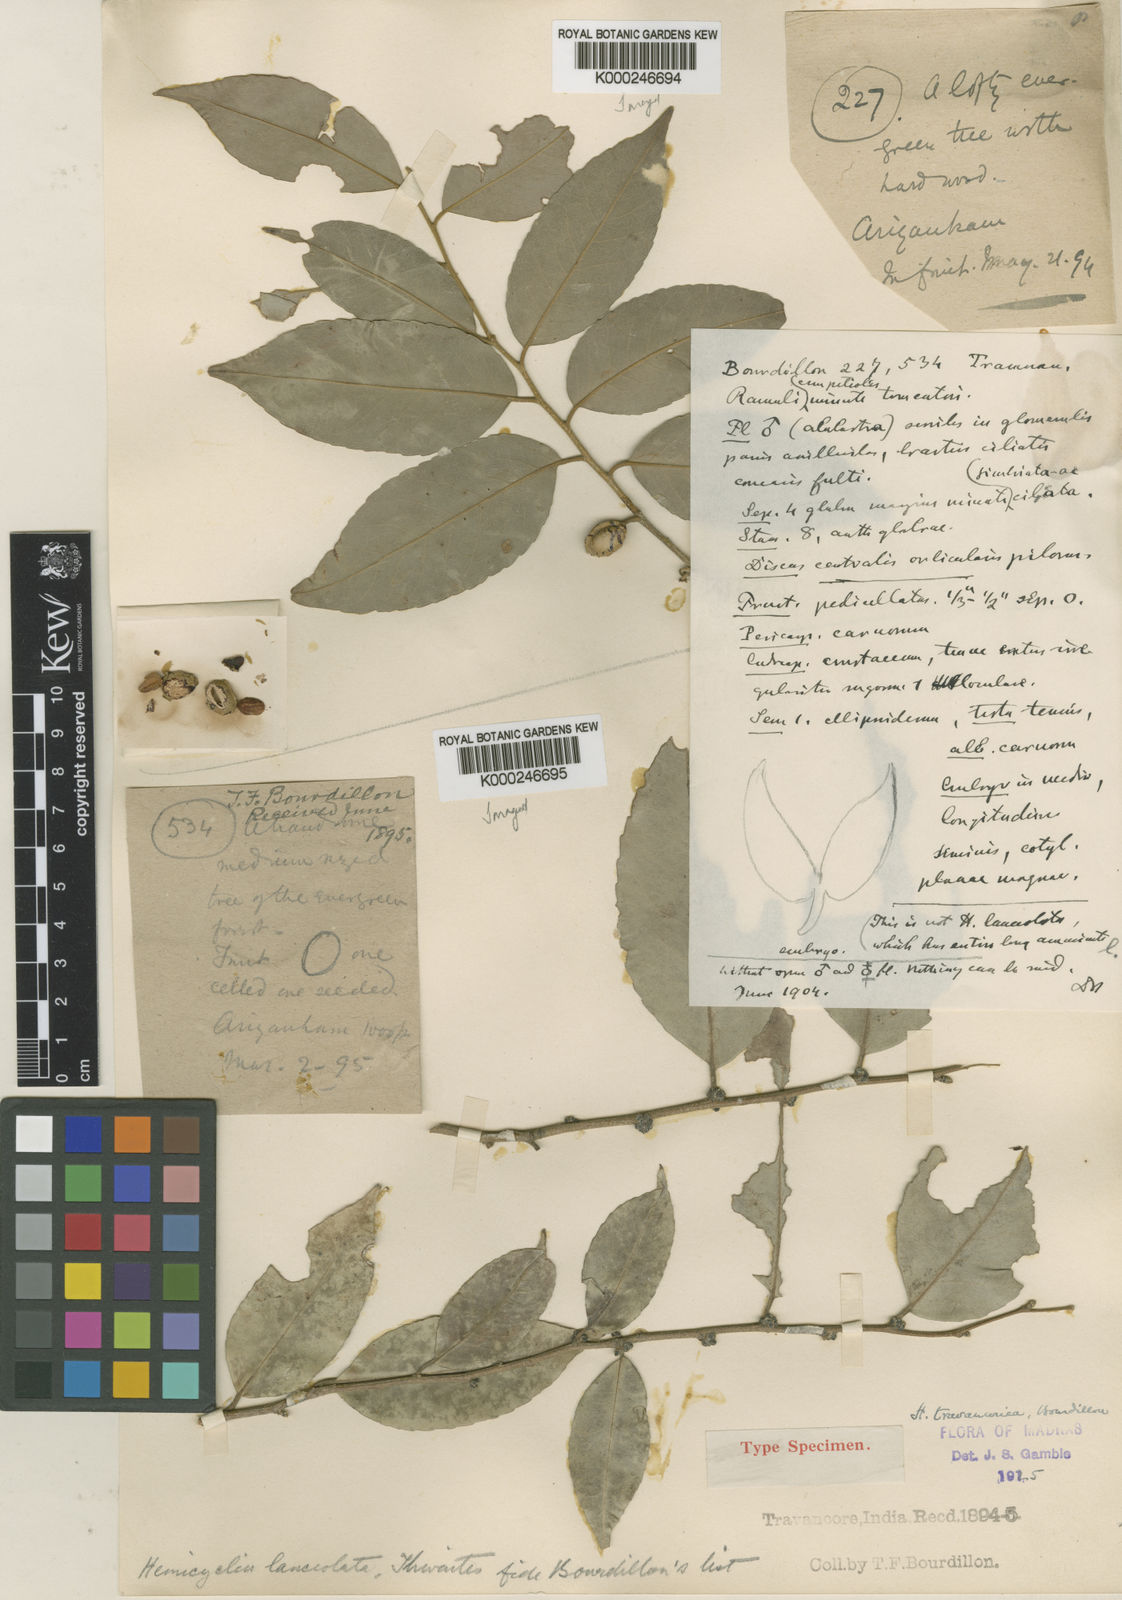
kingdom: Plantae
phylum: Tracheophyta
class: Magnoliopsida
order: Malpighiales
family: Putranjivaceae
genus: Drypetes
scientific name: Drypetes gardneri
